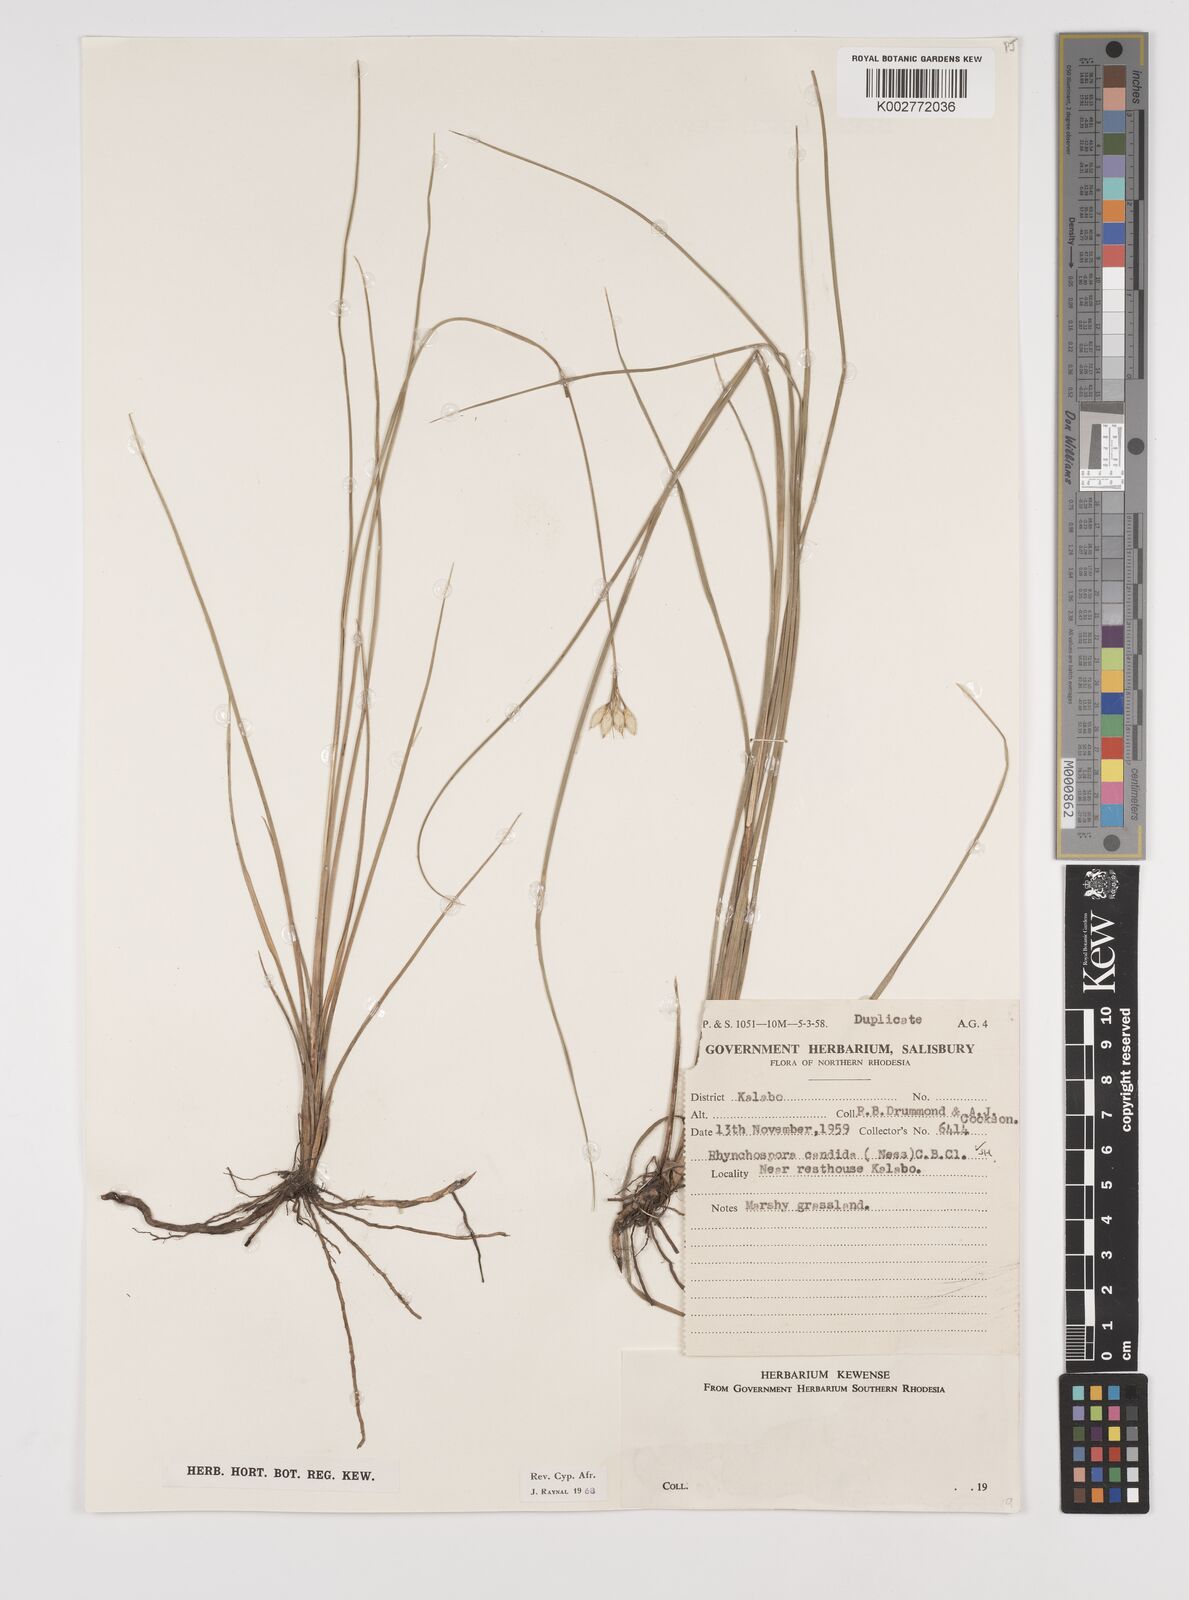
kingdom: Plantae
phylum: Tracheophyta
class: Liliopsida
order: Poales
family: Cyperaceae
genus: Rhynchospora
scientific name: Rhynchospora candida
